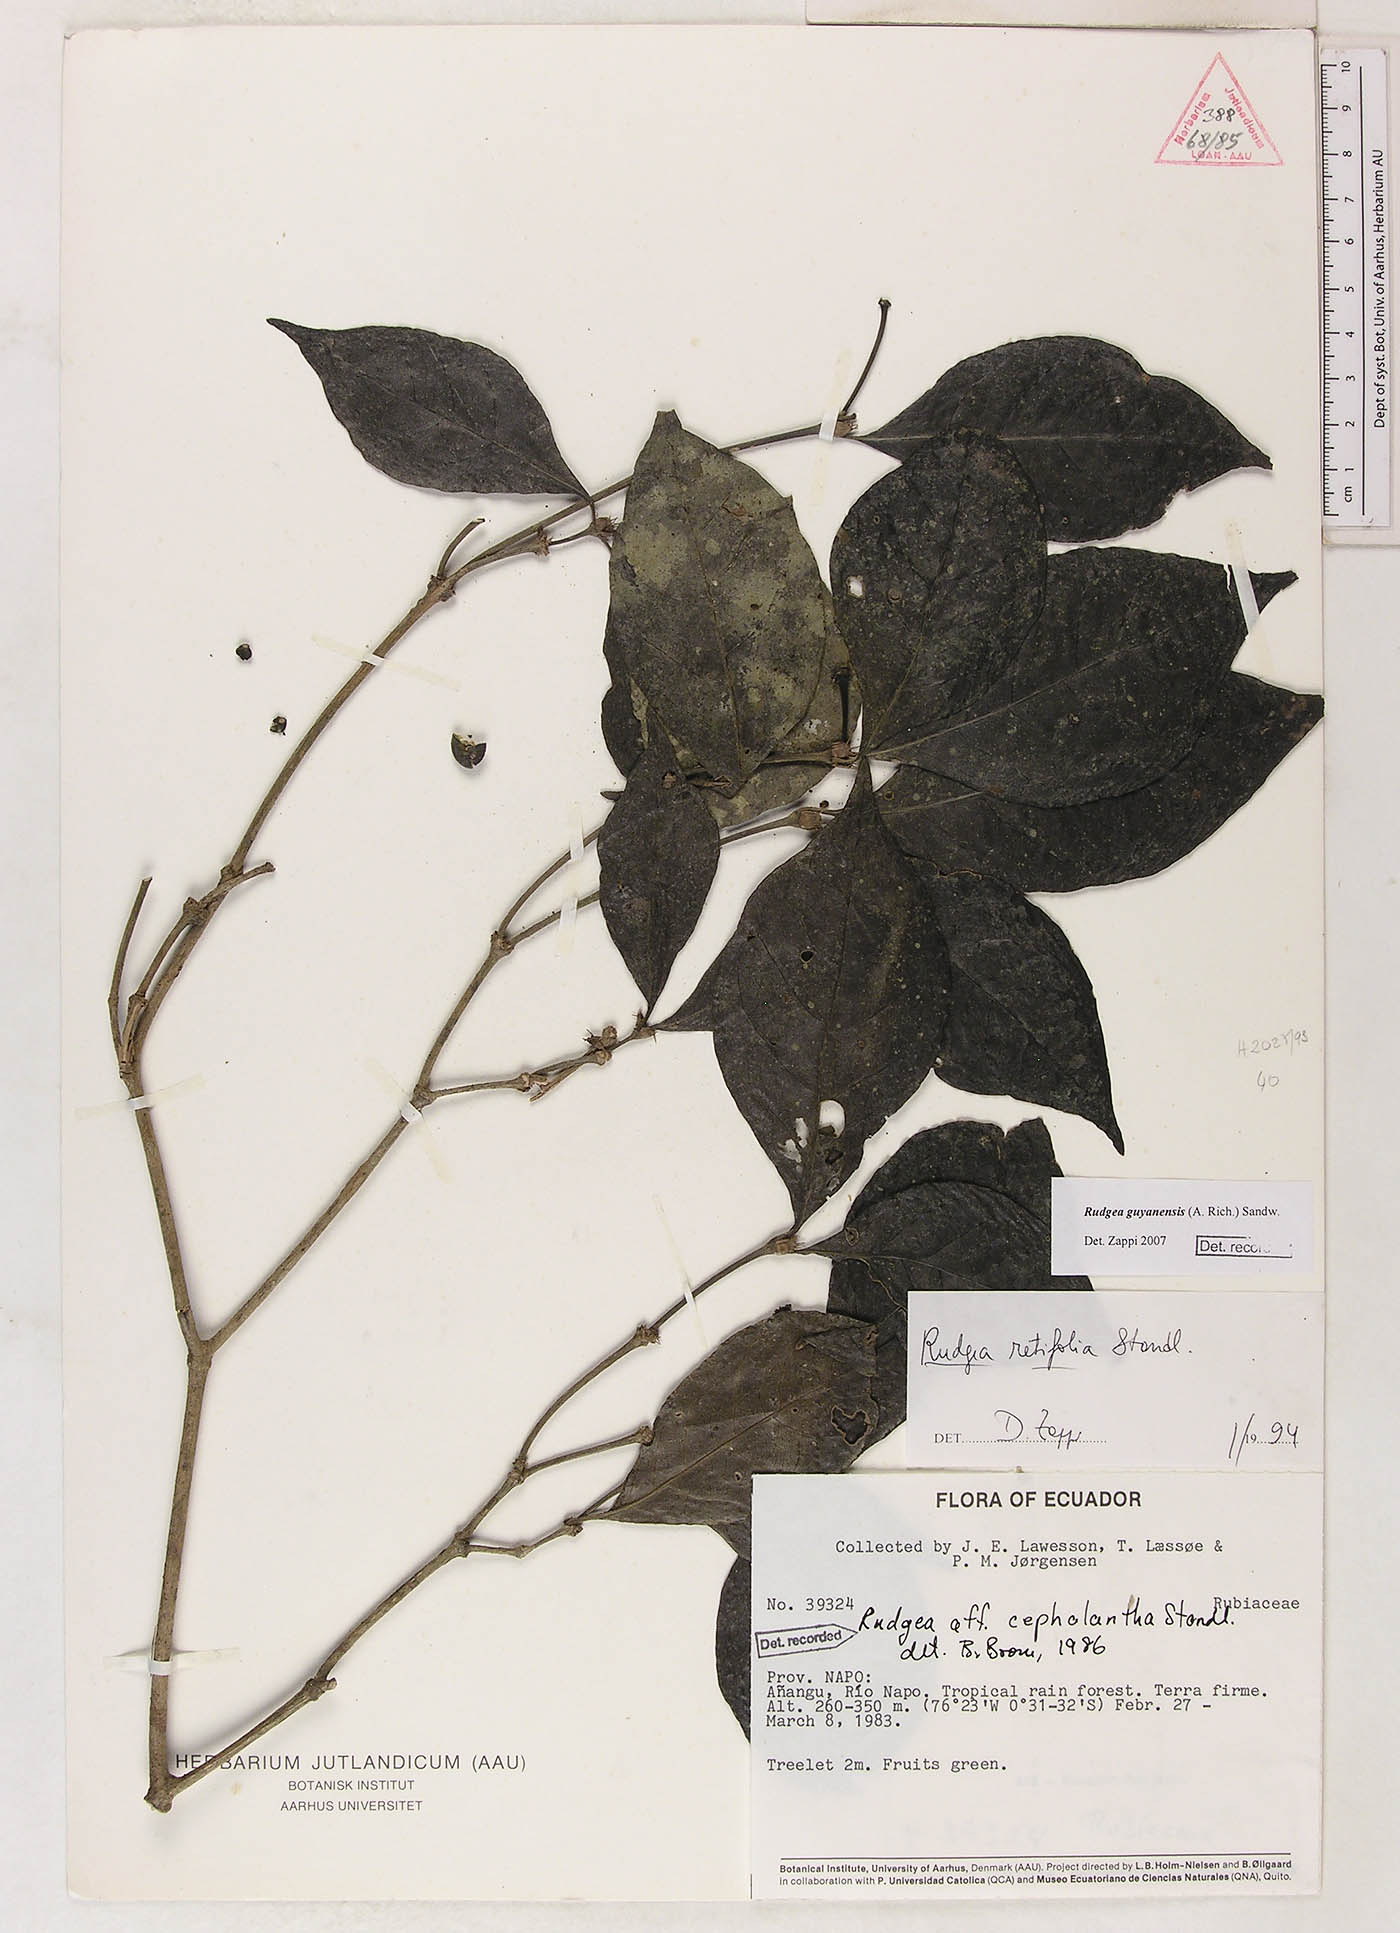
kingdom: Plantae
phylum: Tracheophyta
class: Magnoliopsida
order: Gentianales
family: Rubiaceae
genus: Rudgea
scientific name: Rudgea guianensis
